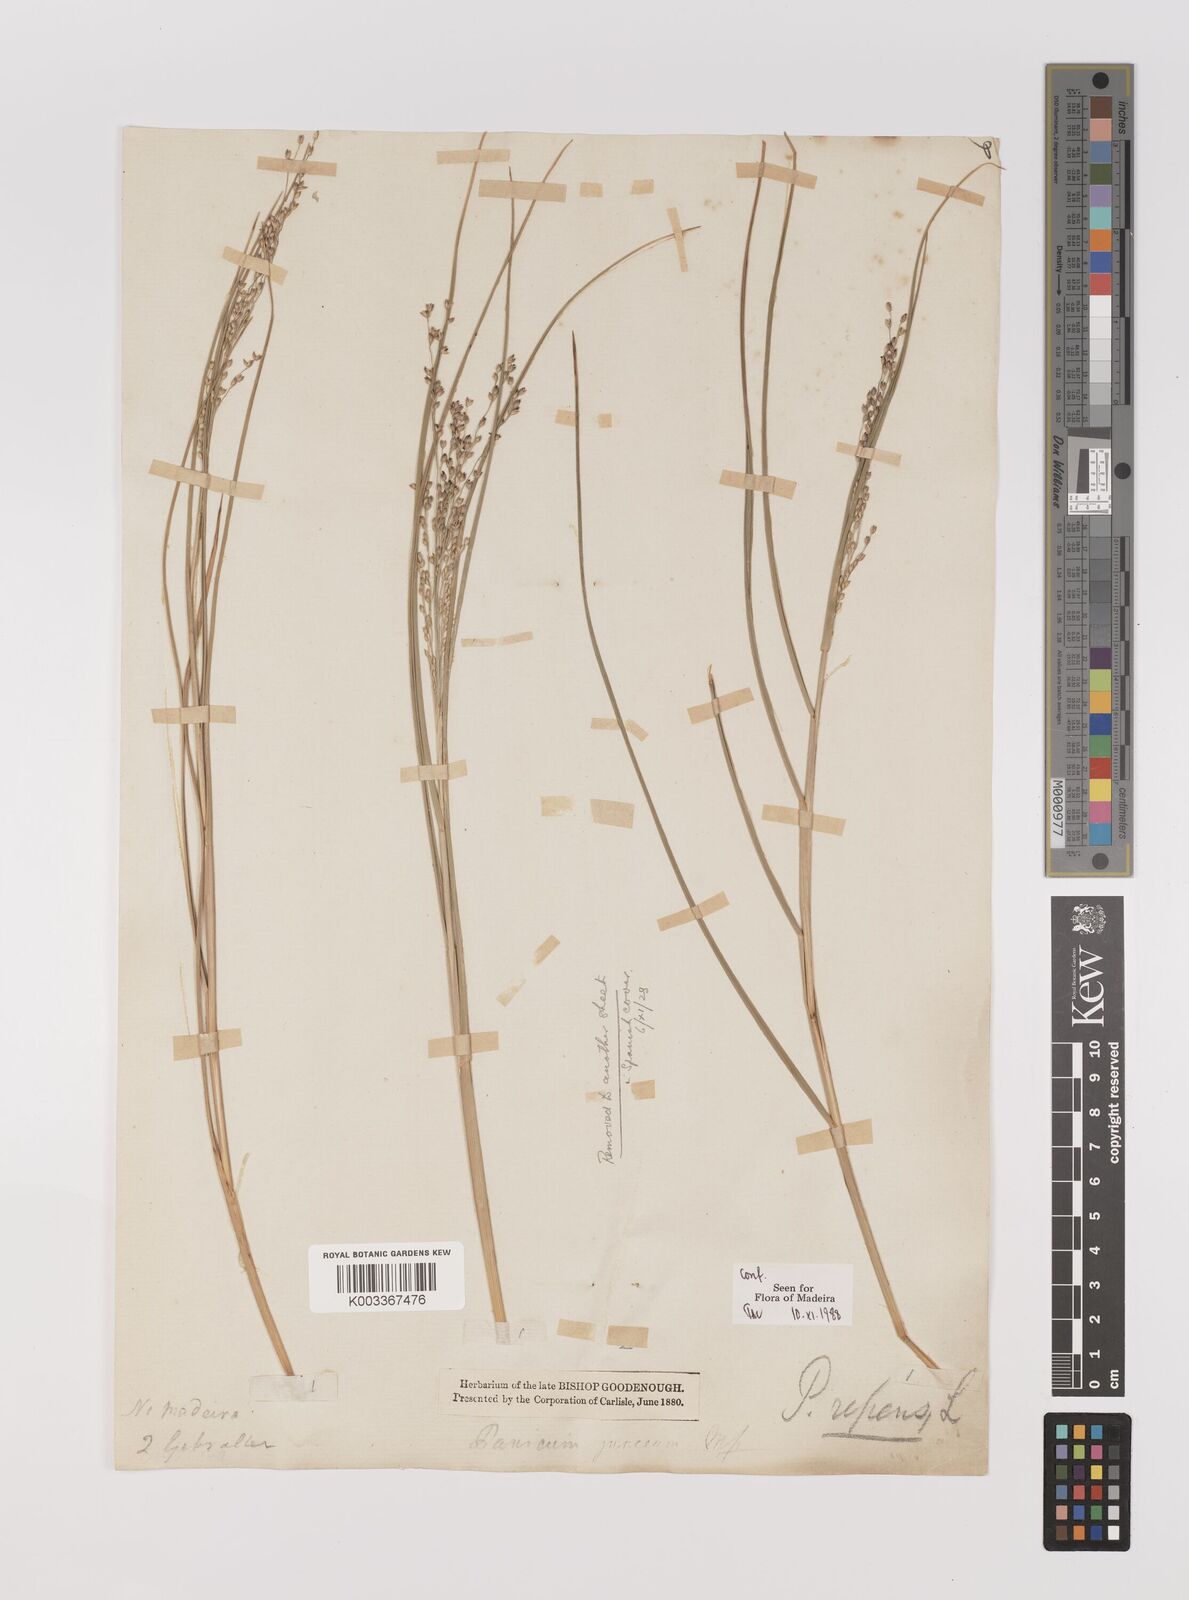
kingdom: Plantae
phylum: Tracheophyta
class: Liliopsida
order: Poales
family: Poaceae
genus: Panicum
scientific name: Panicum repens
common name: Torpedo grass
